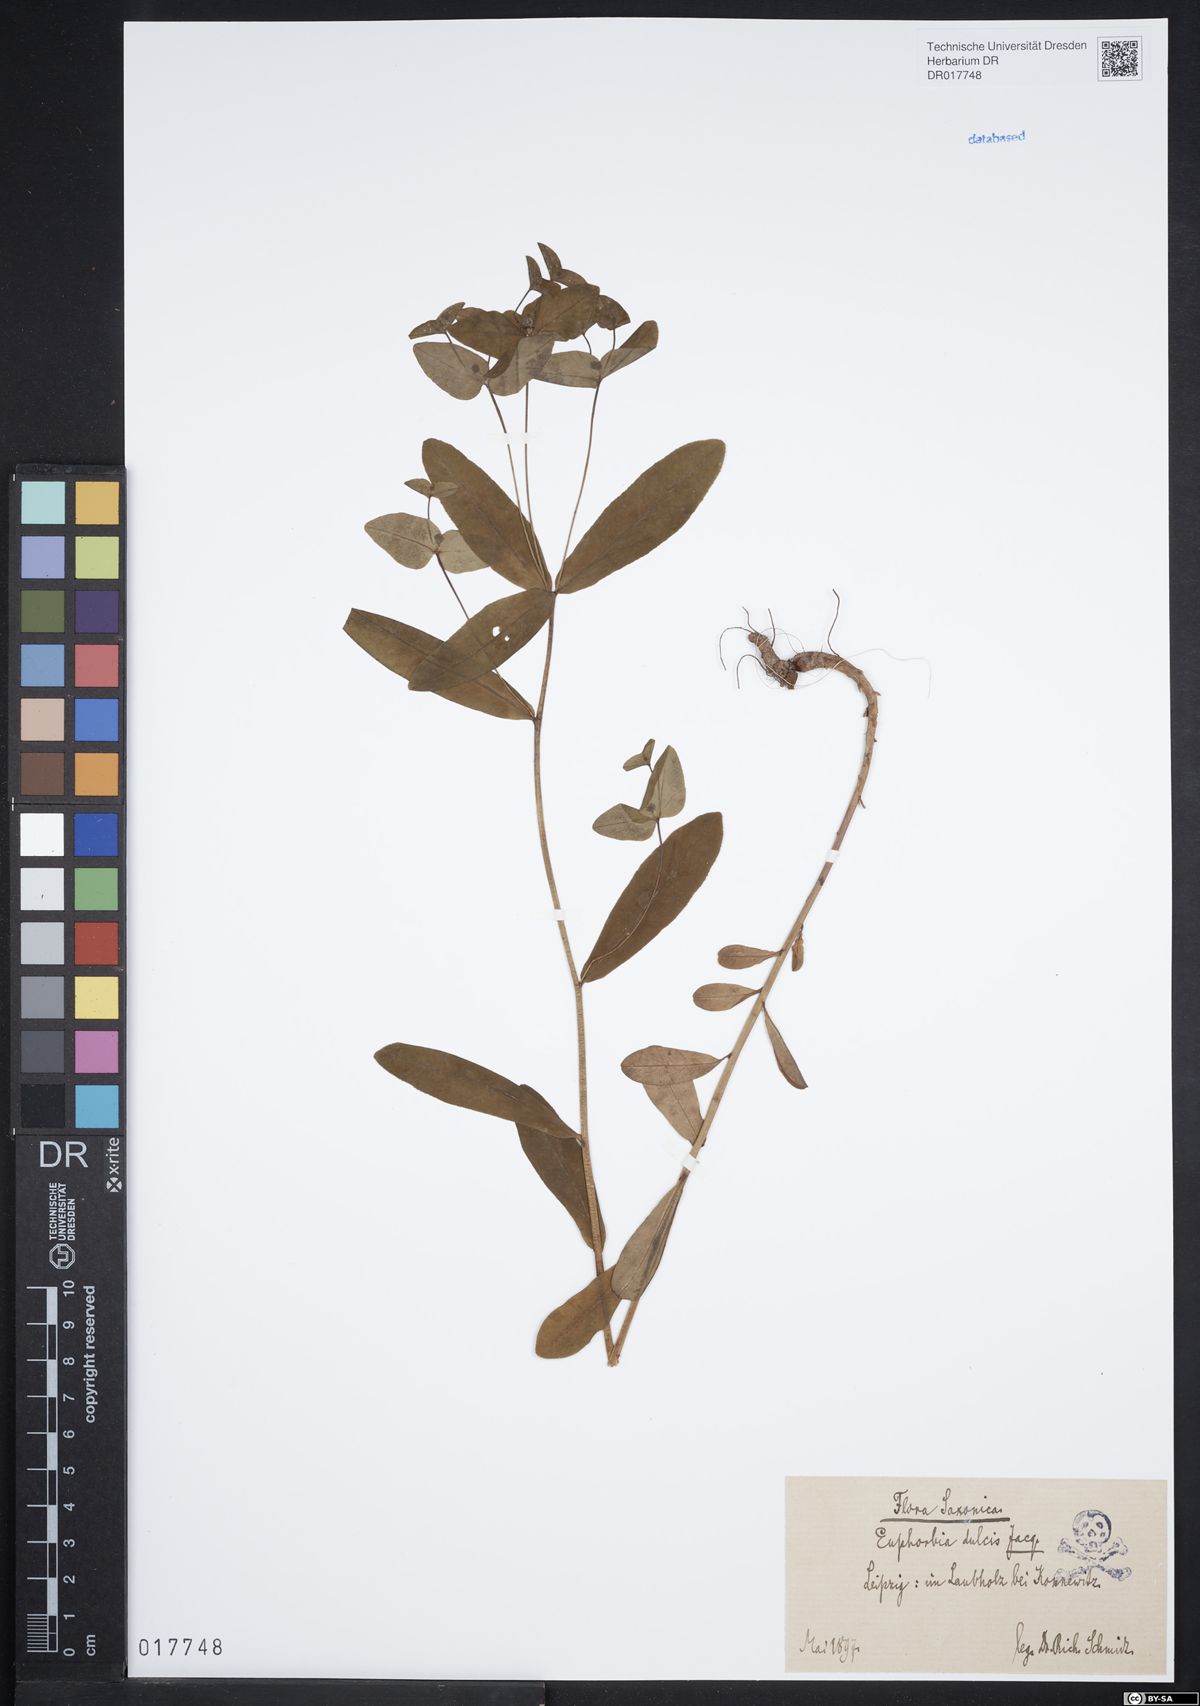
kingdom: Plantae
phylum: Tracheophyta
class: Magnoliopsida
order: Malpighiales
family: Euphorbiaceae
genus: Euphorbia
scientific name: Euphorbia dulcis
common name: Sweet spurge
